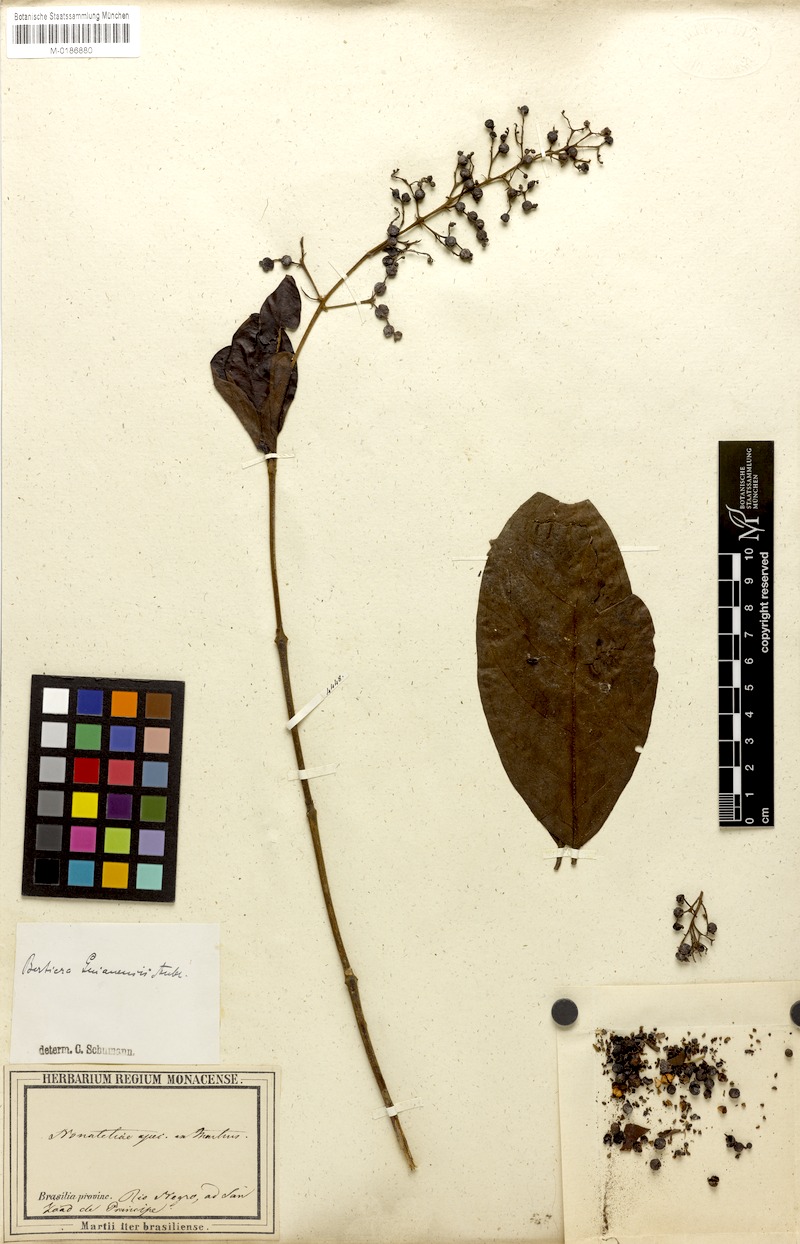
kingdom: Plantae
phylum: Tracheophyta
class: Magnoliopsida
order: Gentianales
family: Rubiaceae
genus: Bertiera
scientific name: Bertiera guianensis
